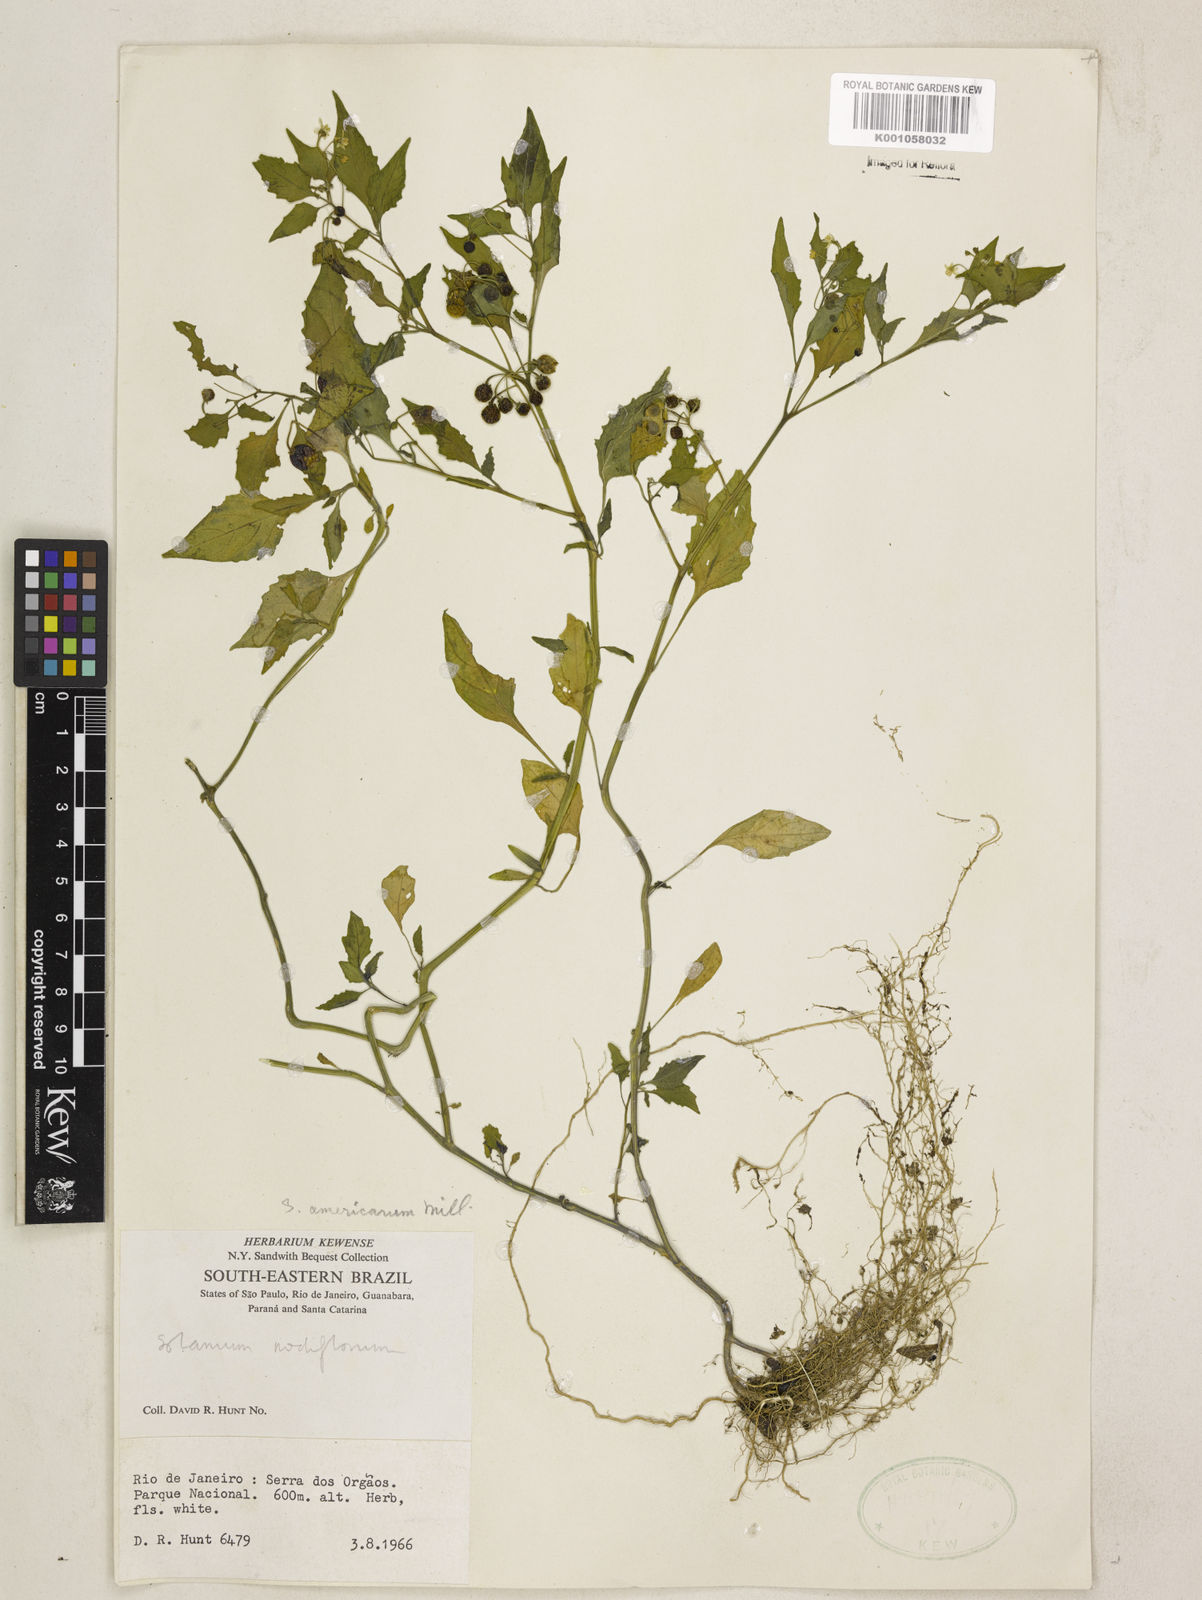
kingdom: Plantae
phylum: Tracheophyta
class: Magnoliopsida
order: Solanales
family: Solanaceae
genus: Solanum
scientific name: Solanum americanum
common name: American black nightshade
